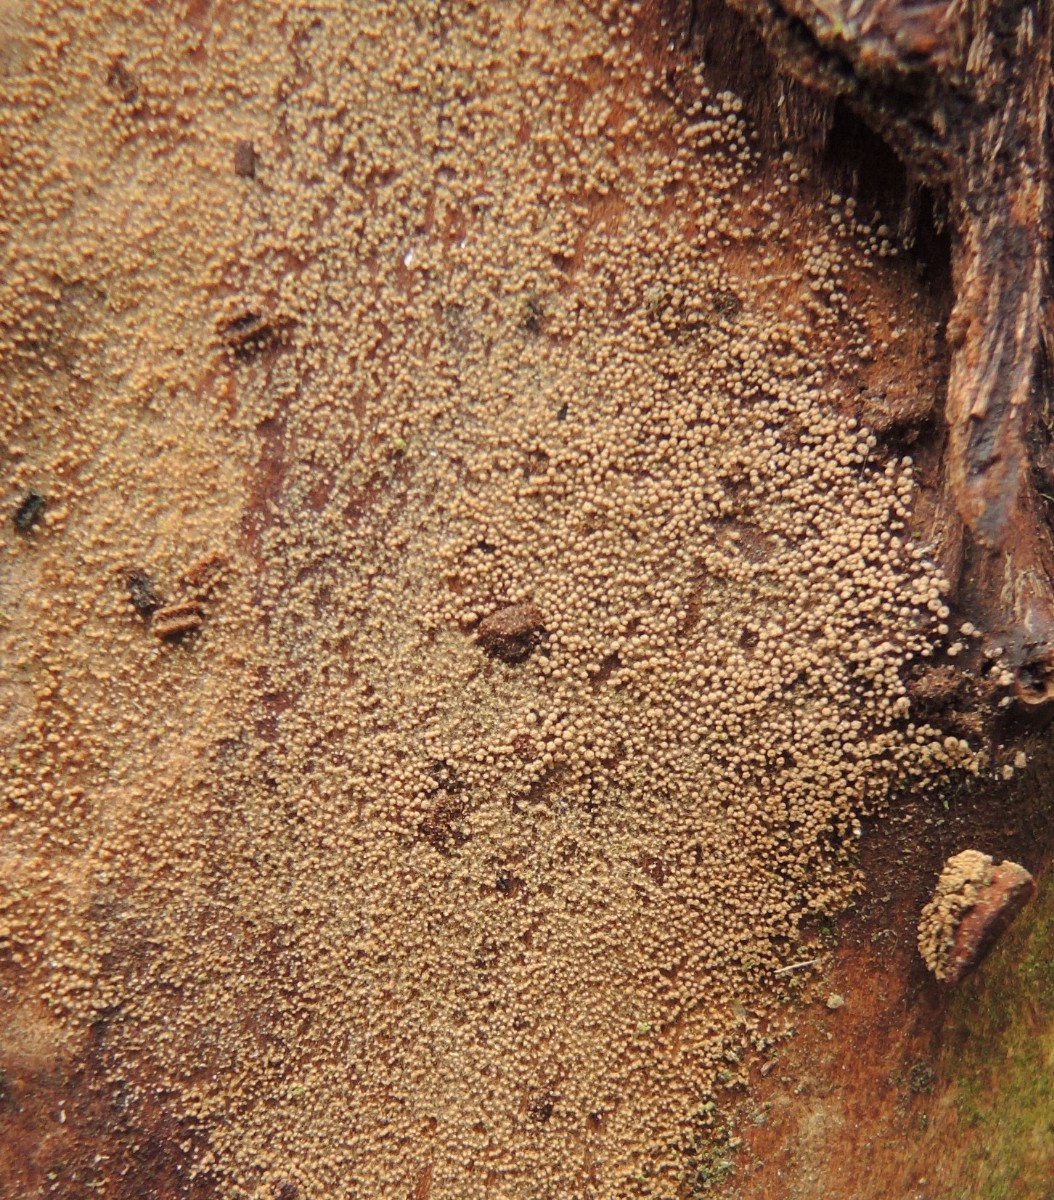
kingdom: Fungi
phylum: Basidiomycota
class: Agaricomycetes
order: Agaricales
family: Niaceae
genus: Merismodes
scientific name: Merismodes anomala
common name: almindelig læderskål
